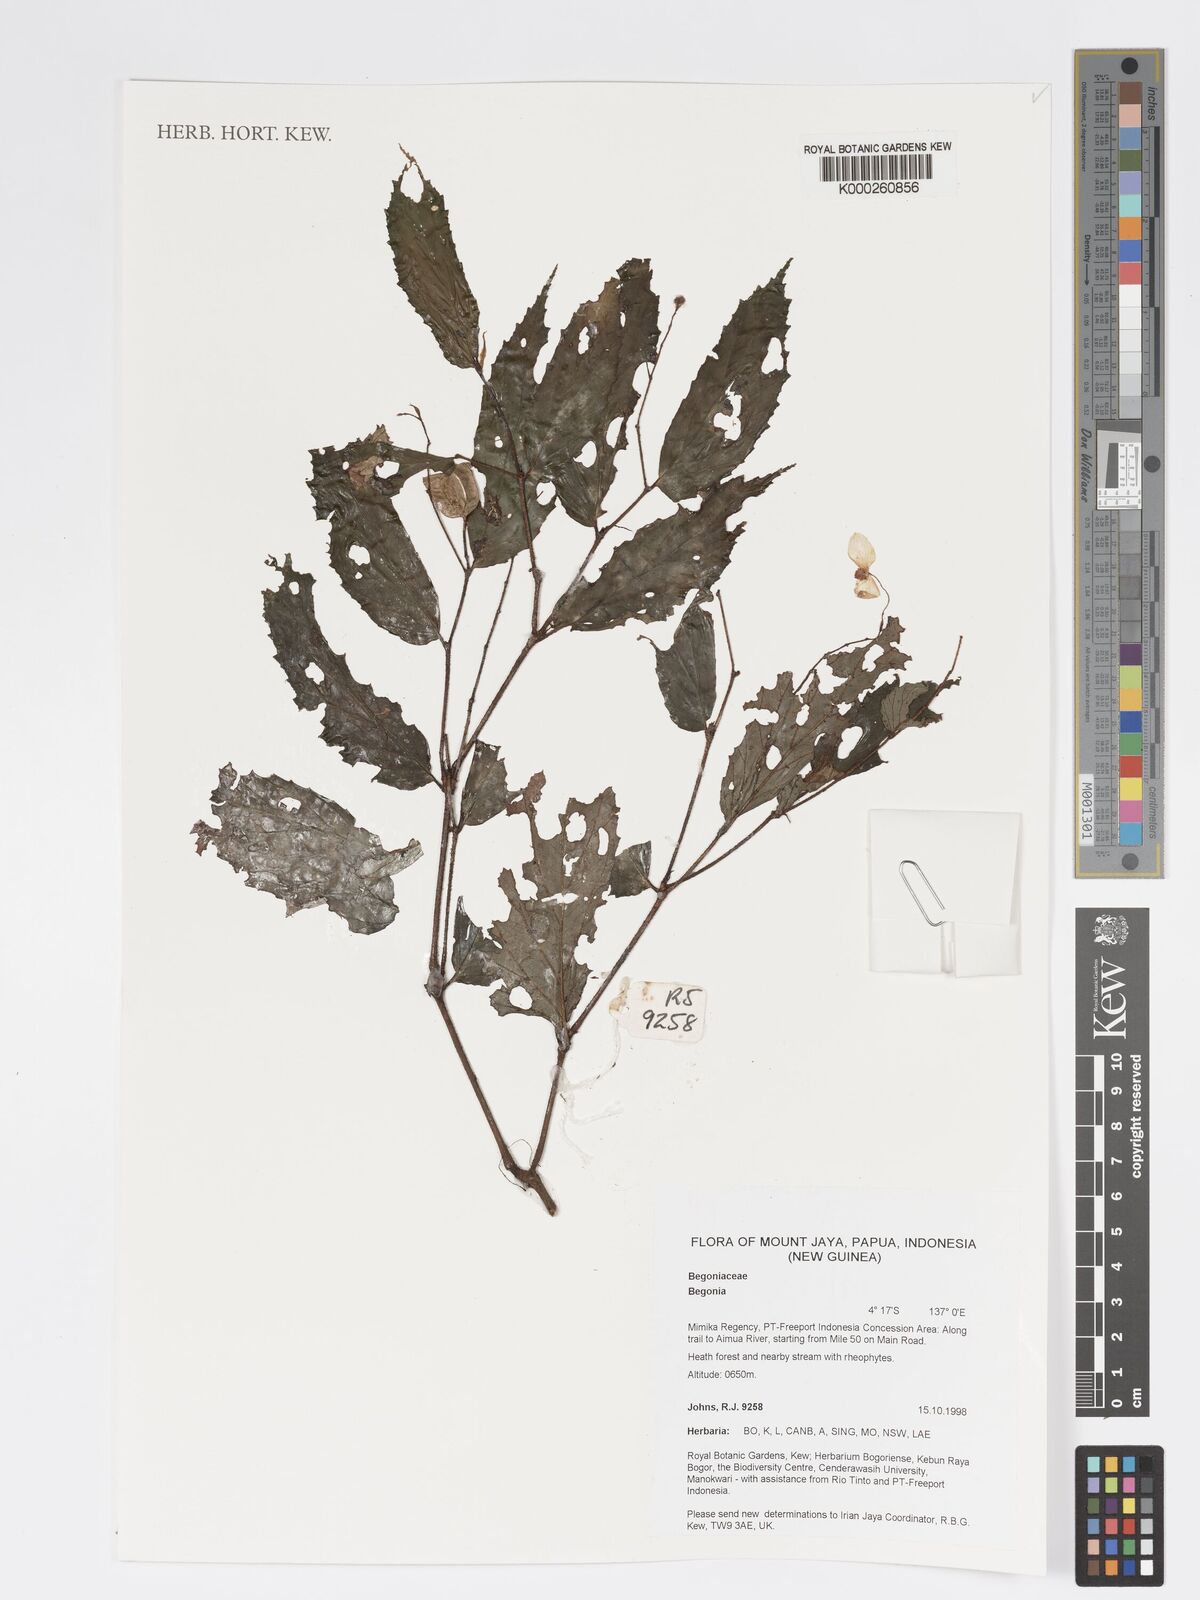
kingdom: Plantae
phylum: Tracheophyta
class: Magnoliopsida
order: Cucurbitales
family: Begoniaceae
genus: Begonia
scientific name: Begonia
